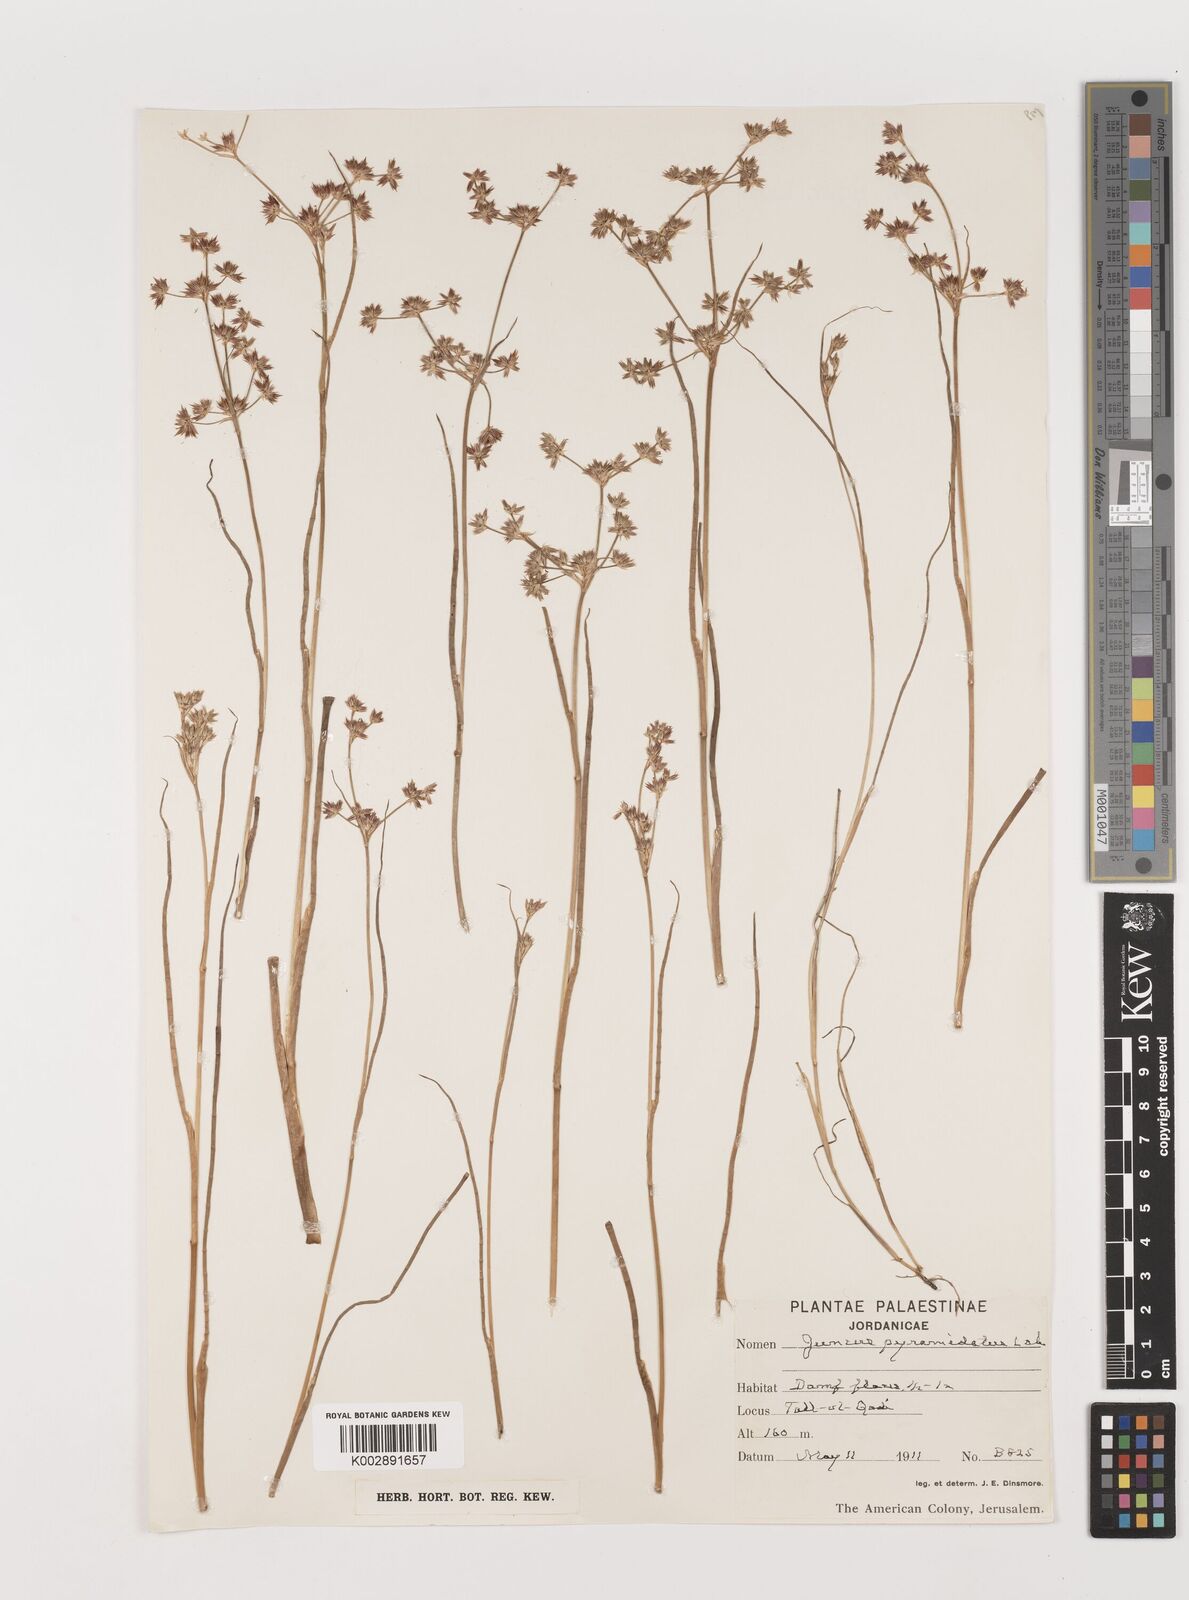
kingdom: Plantae
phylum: Tracheophyta
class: Liliopsida
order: Poales
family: Juncaceae
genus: Juncus
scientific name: Juncus fontanesii
